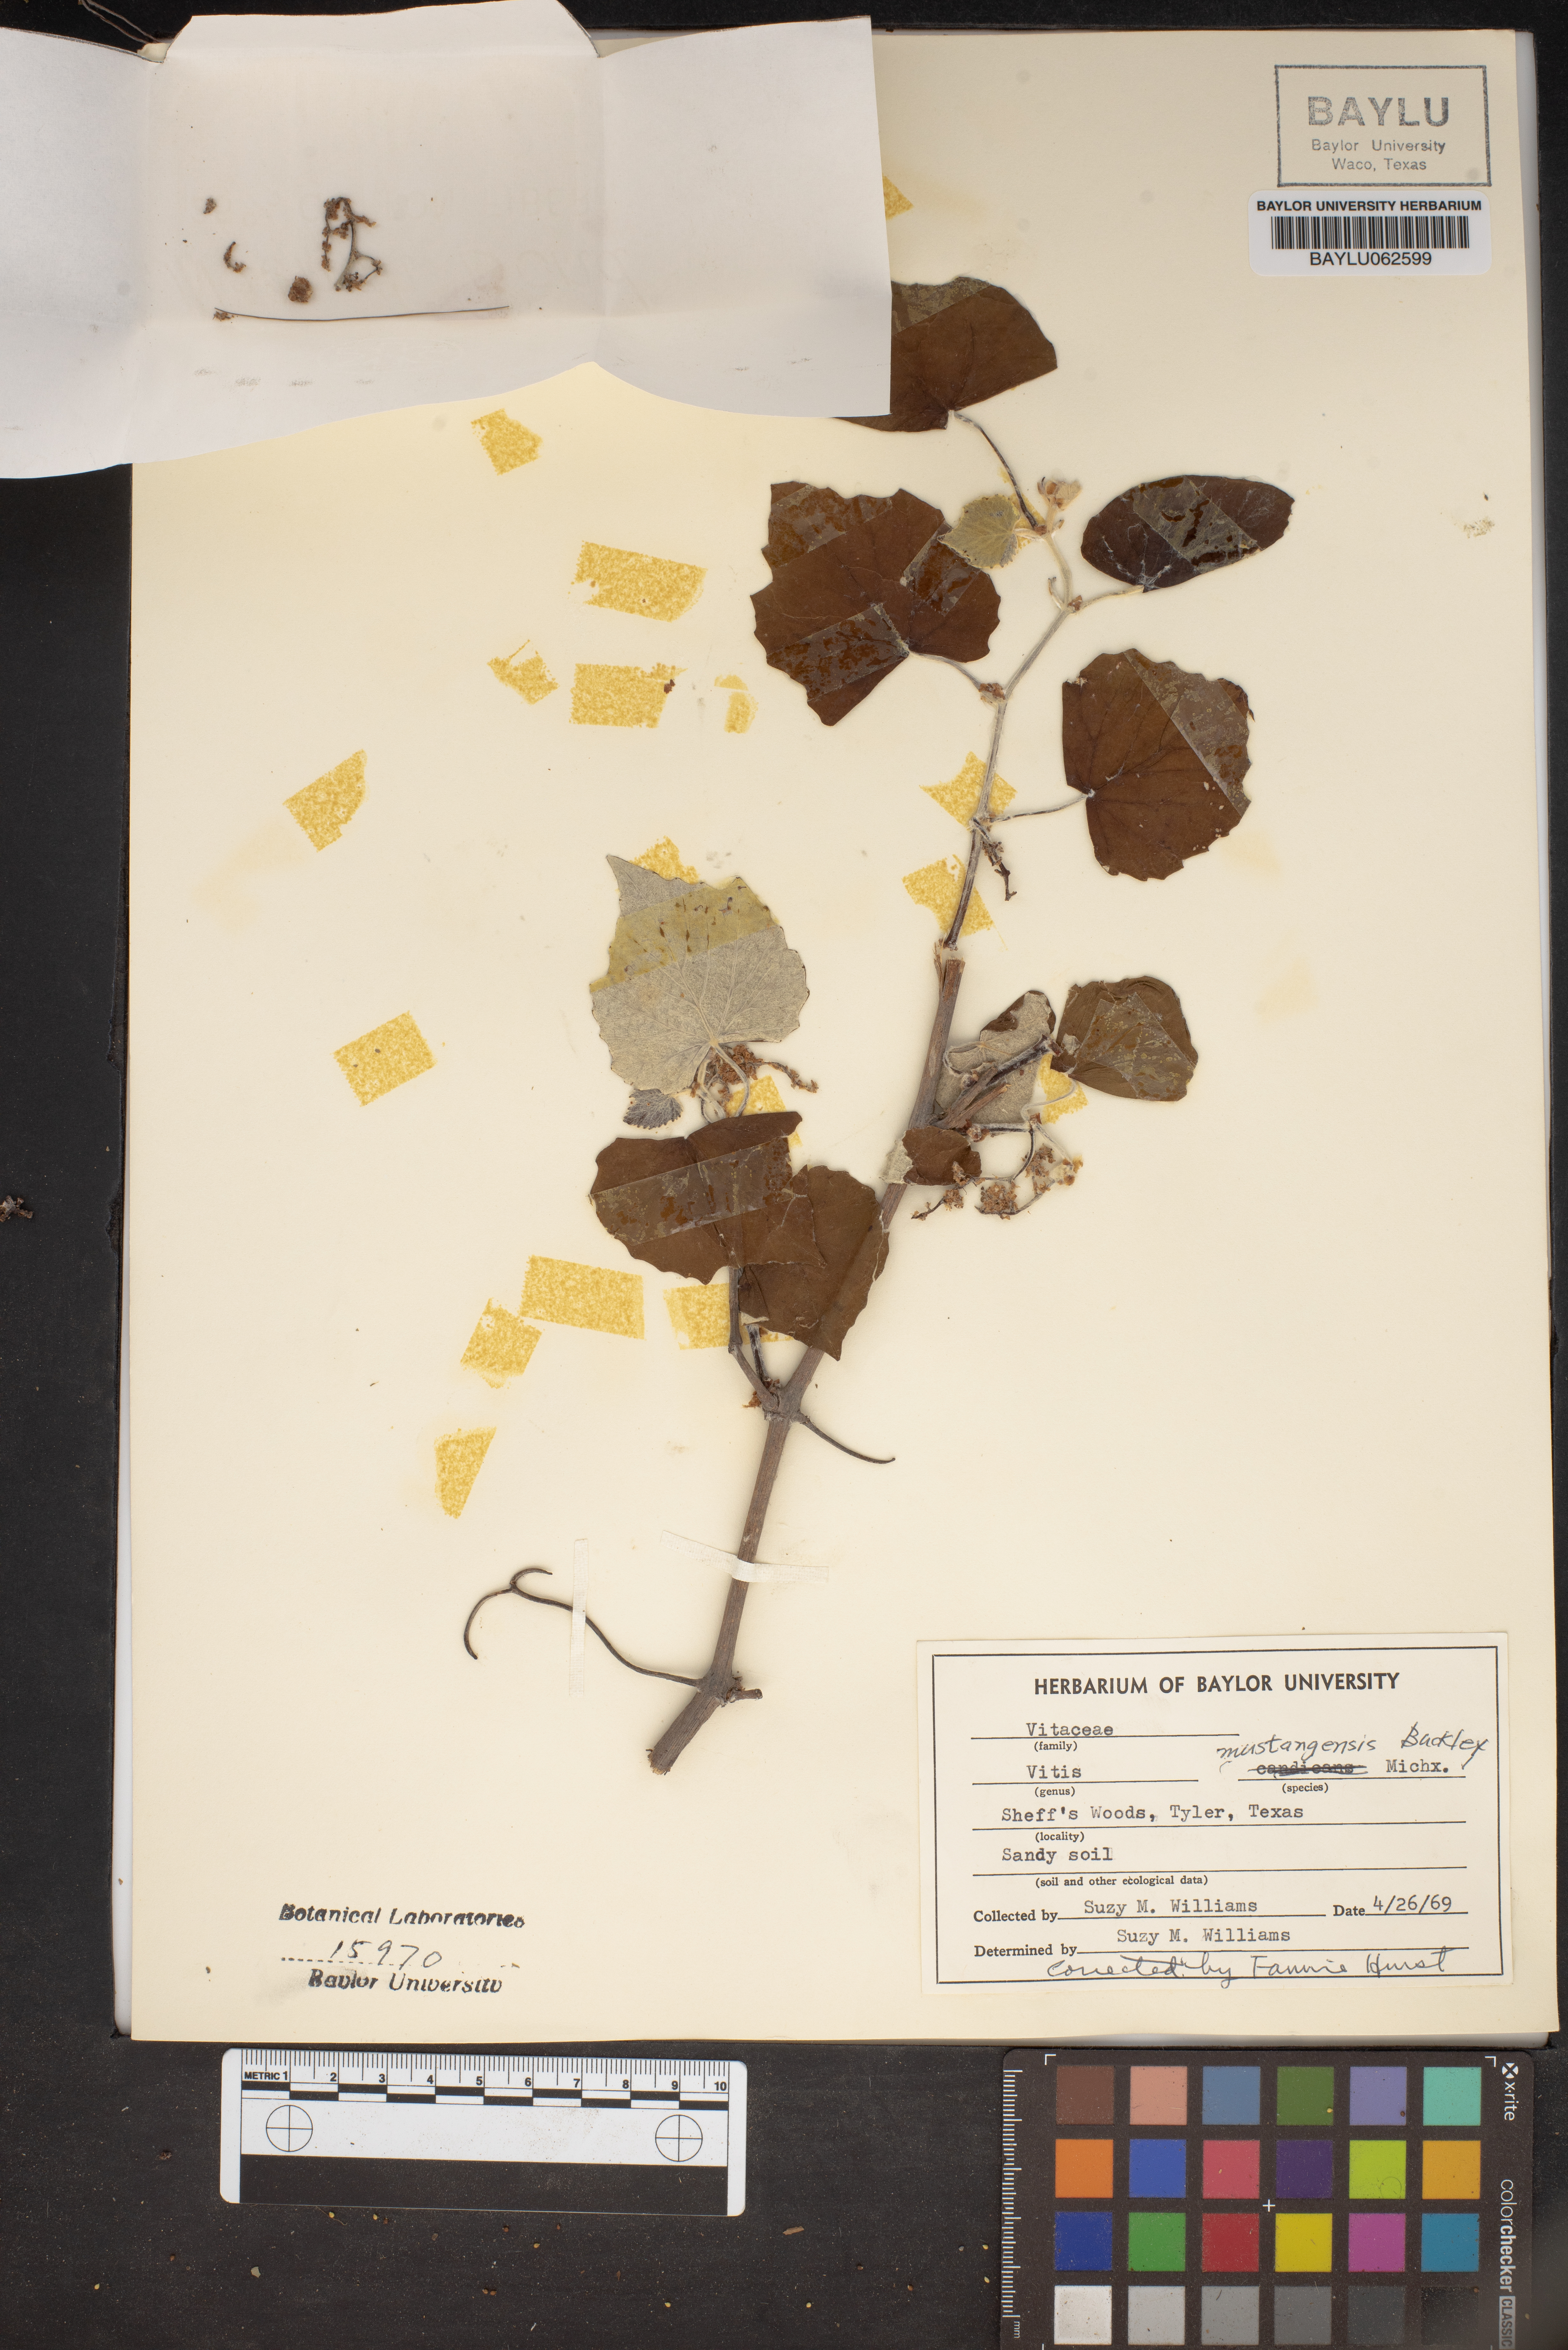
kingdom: Plantae
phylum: Tracheophyta
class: Magnoliopsida
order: Vitales
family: Vitaceae
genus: Vitis
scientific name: Vitis mustangensis
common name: Mustang grape
